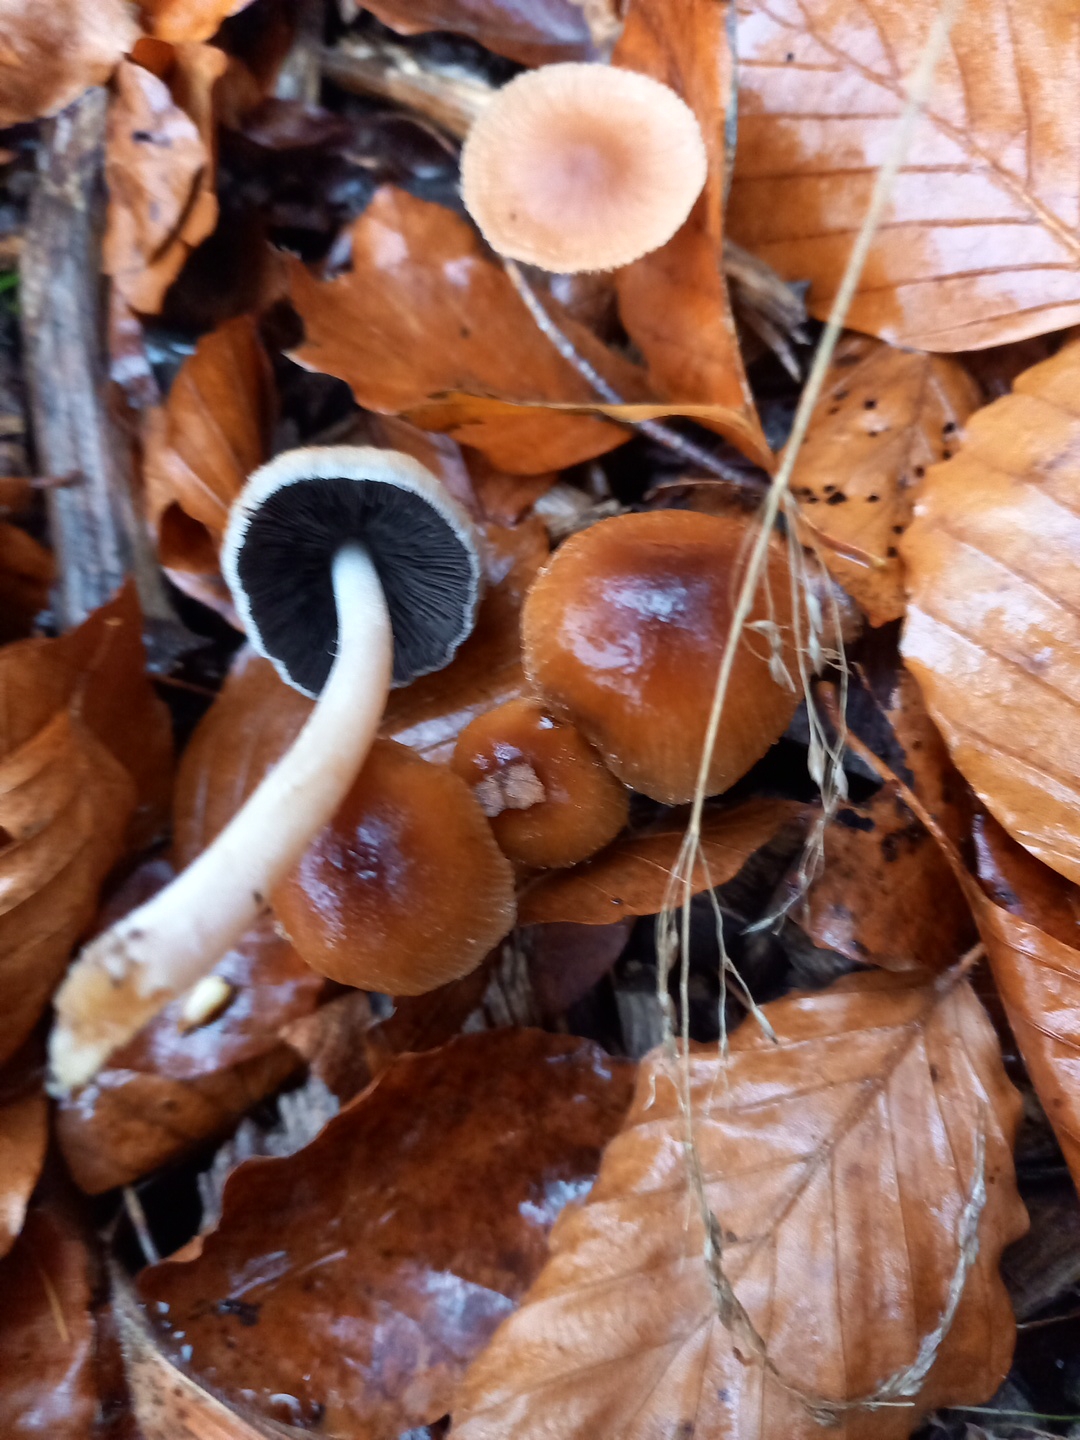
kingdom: Fungi
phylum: Basidiomycota
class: Agaricomycetes
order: Agaricales
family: Psathyrellaceae
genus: Coprinellus
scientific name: Coprinellus
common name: blækhat
